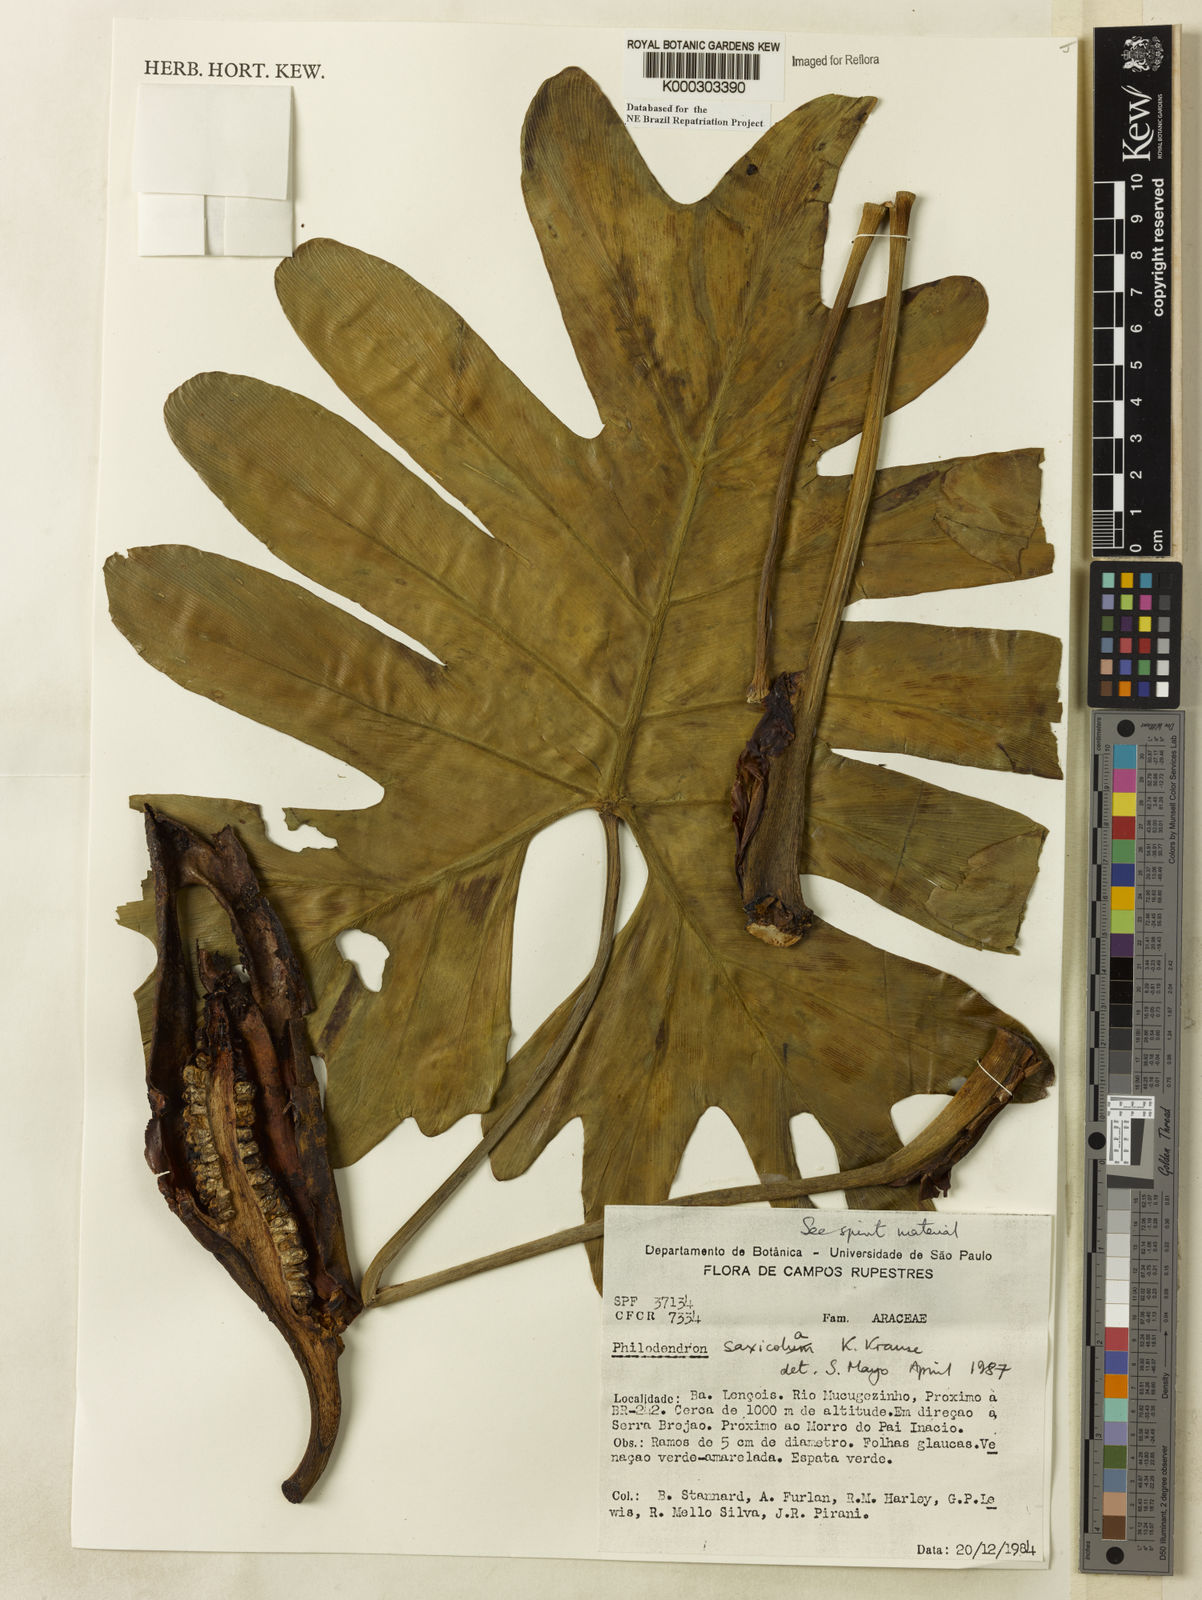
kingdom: Plantae
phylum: Tracheophyta
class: Liliopsida
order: Alismatales
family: Araceae
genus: Thaumatophyllum
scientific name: Thaumatophyllum saxicola
